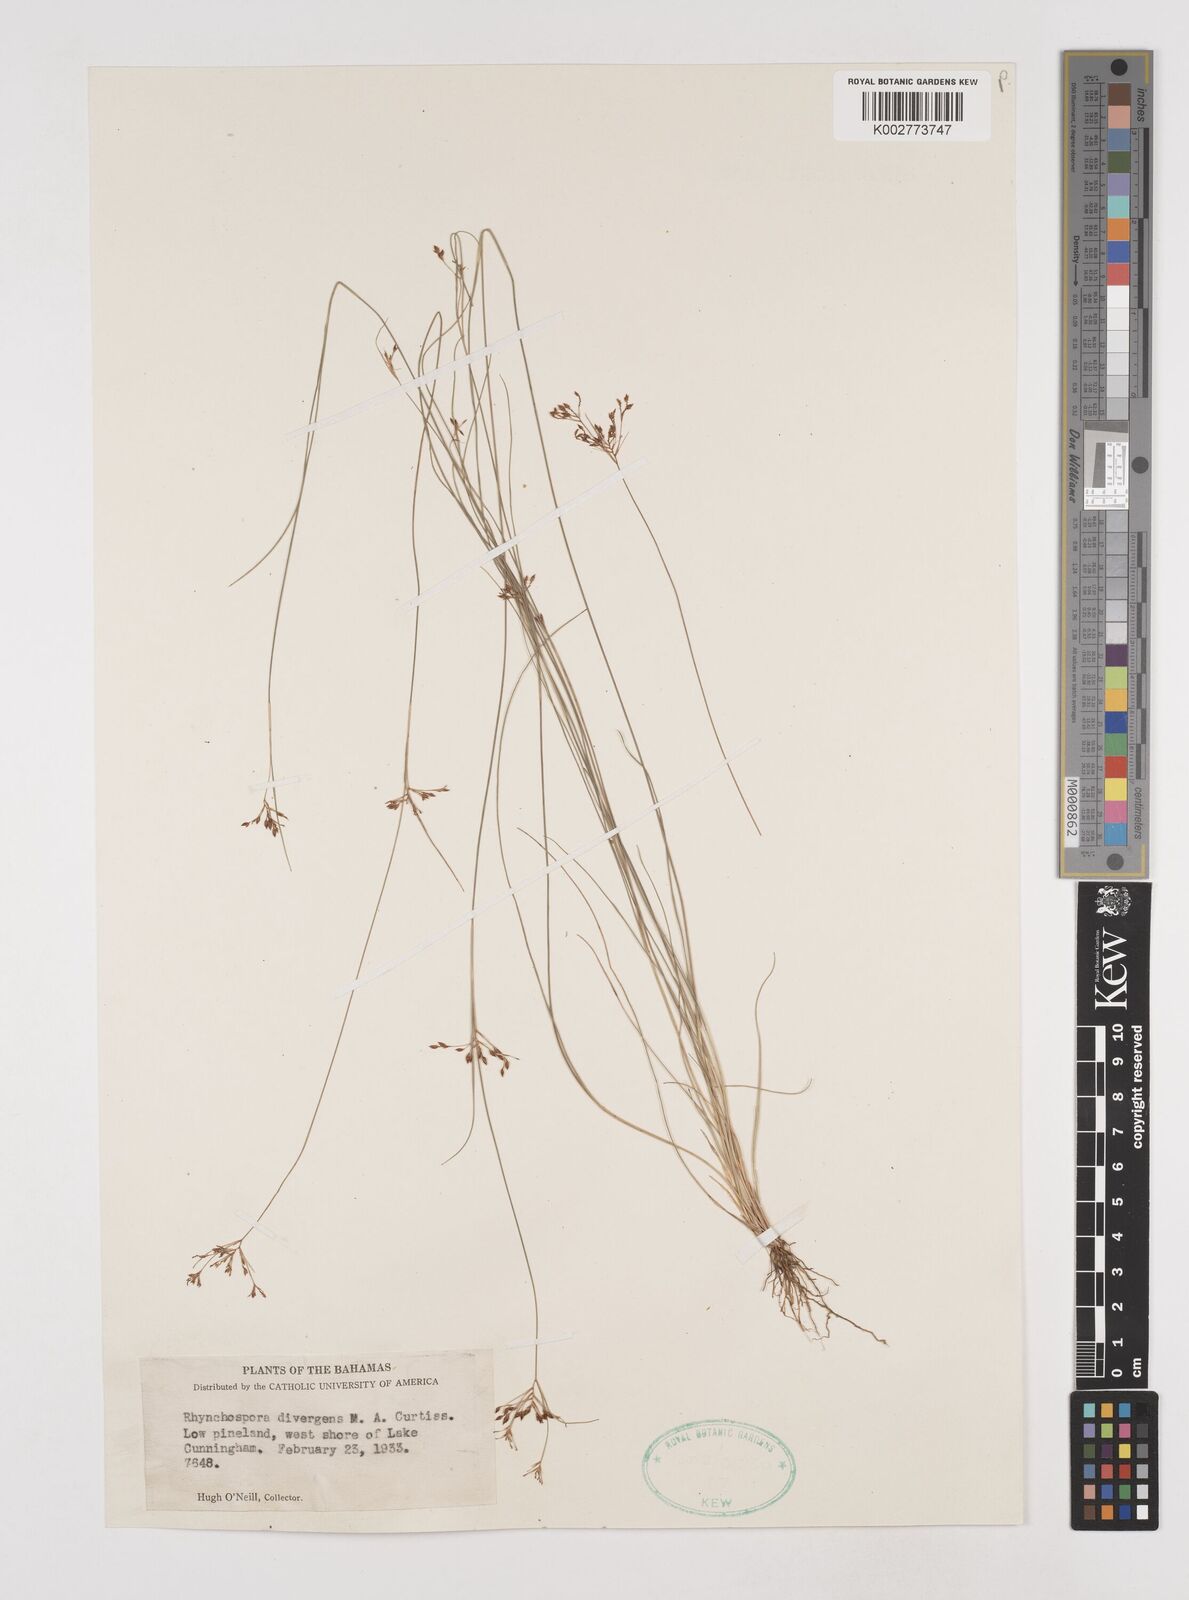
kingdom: Plantae
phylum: Tracheophyta
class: Liliopsida
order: Poales
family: Cyperaceae
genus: Rhynchospora
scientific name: Rhynchospora divergens
